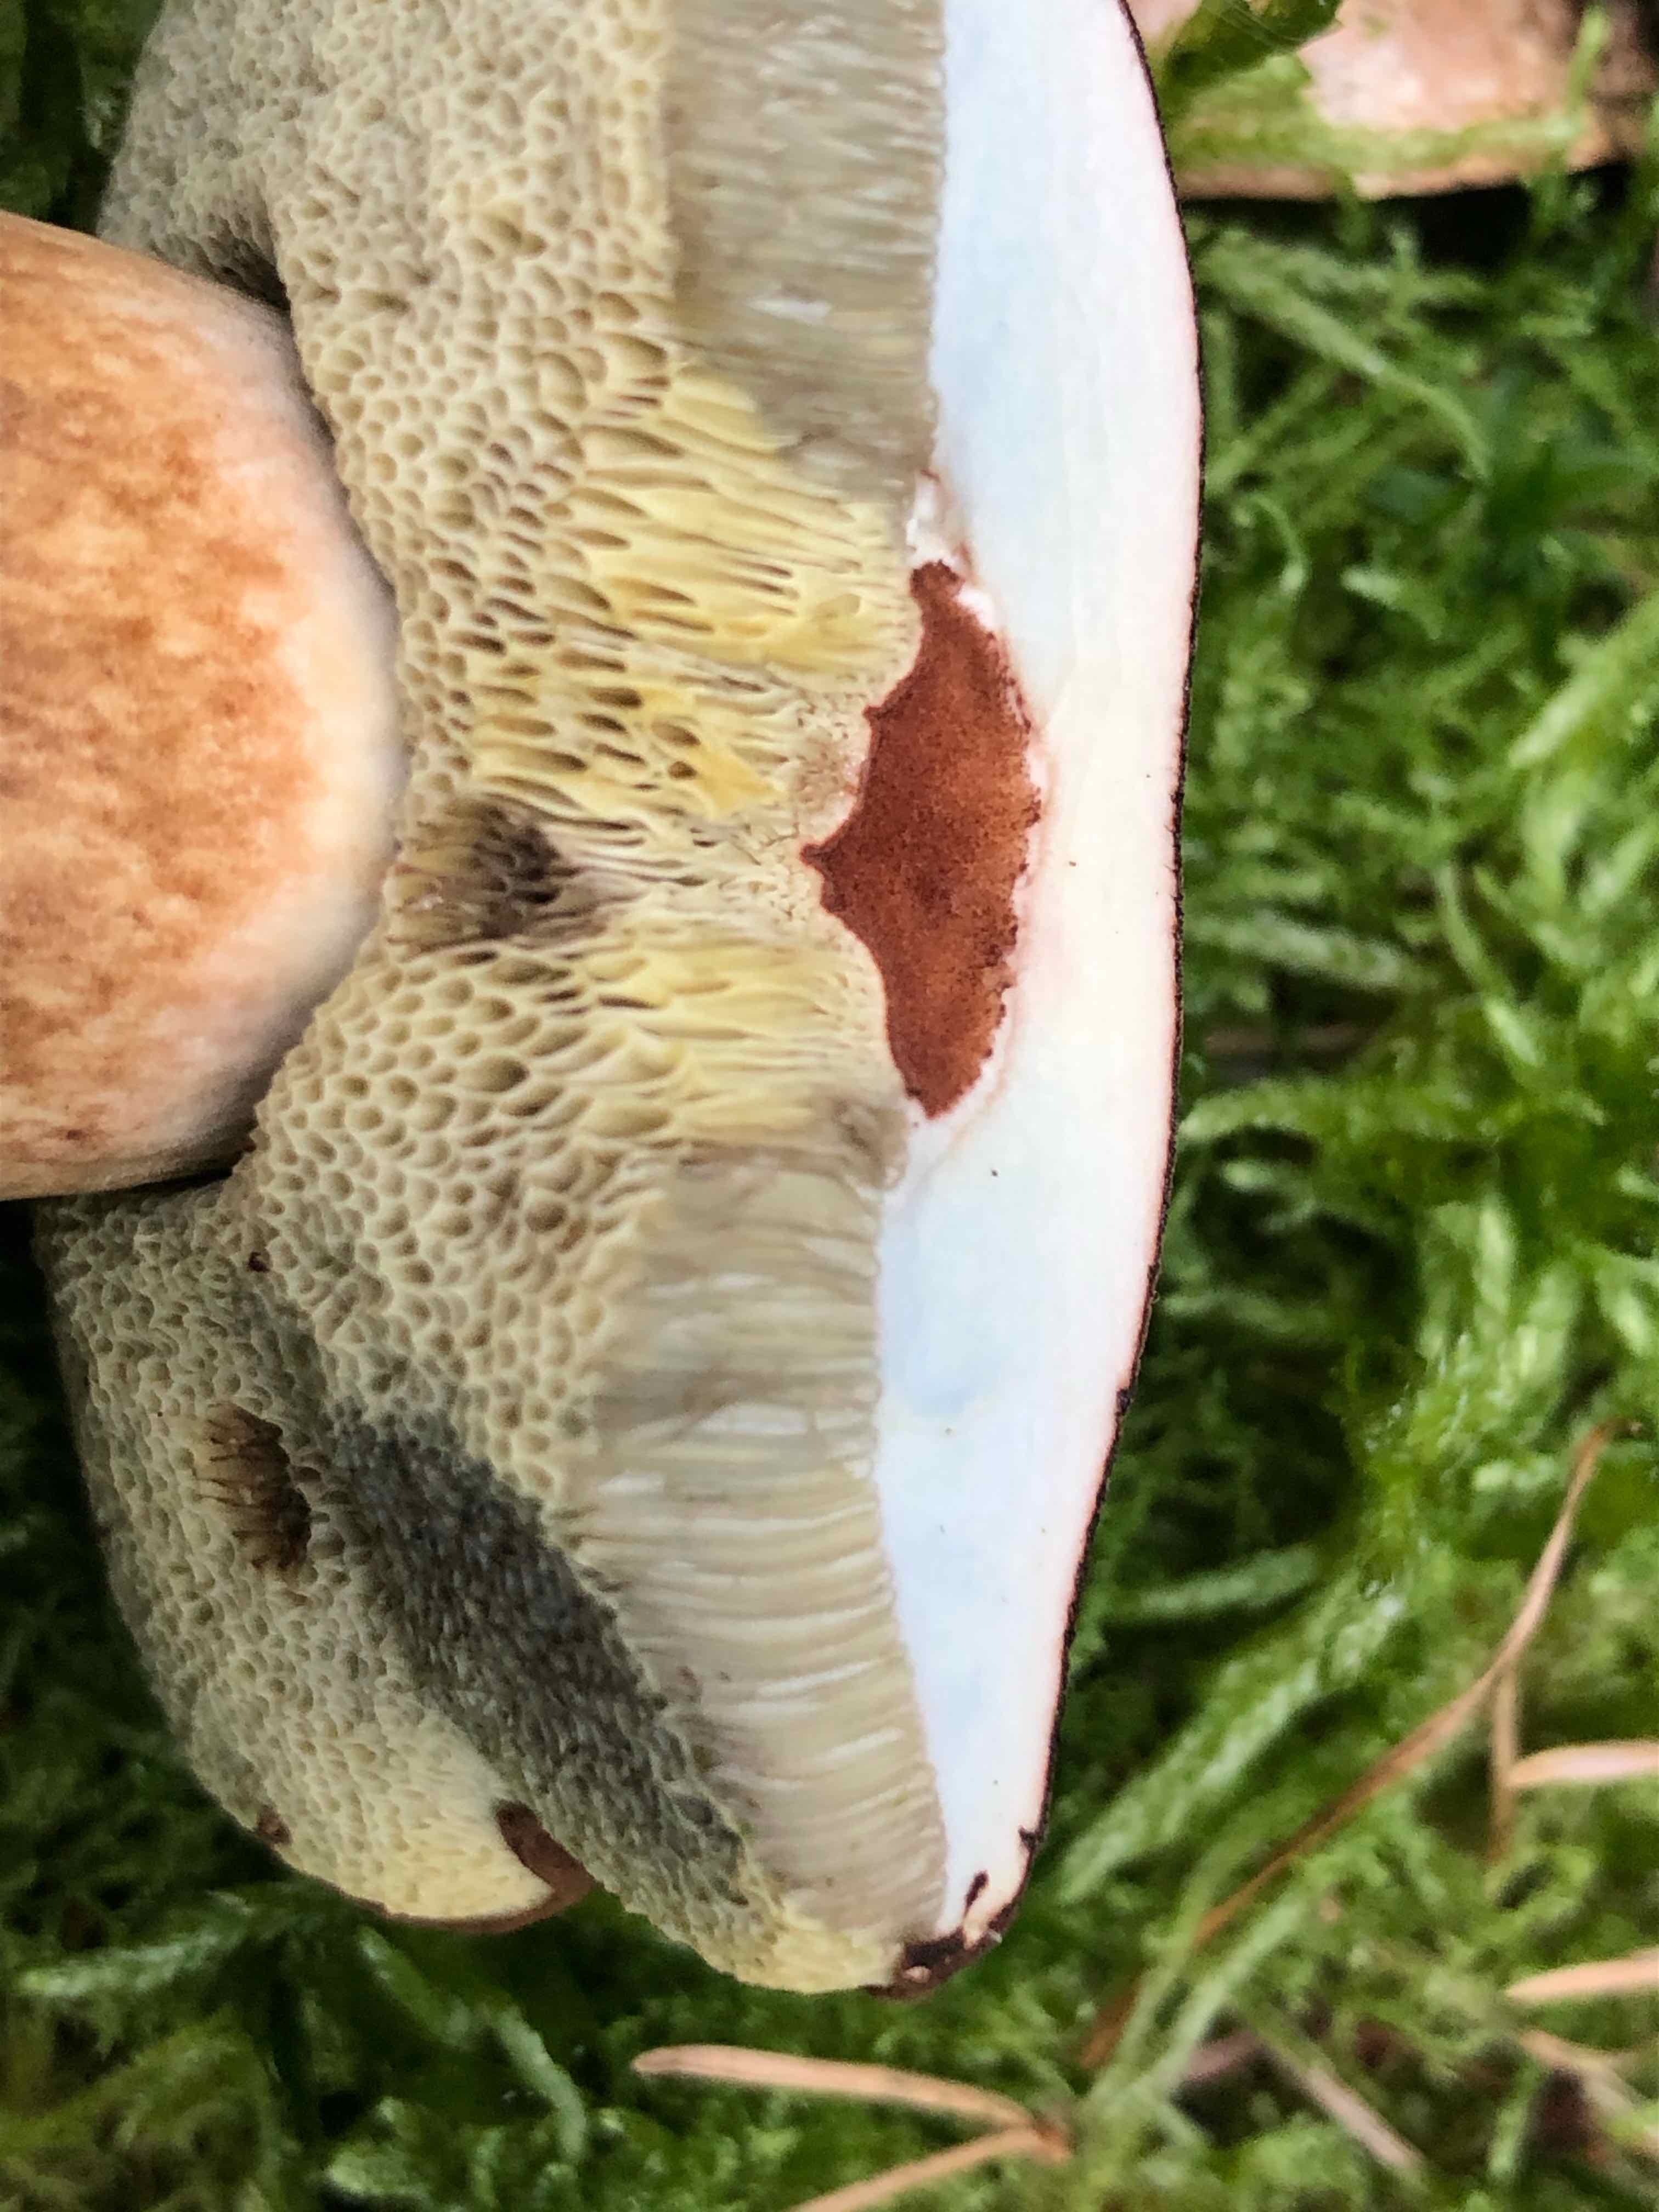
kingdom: Fungi
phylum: Basidiomycota
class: Agaricomycetes
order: Boletales
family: Boletaceae
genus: Imleria
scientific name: Imleria badia
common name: brunstokket rørhat
